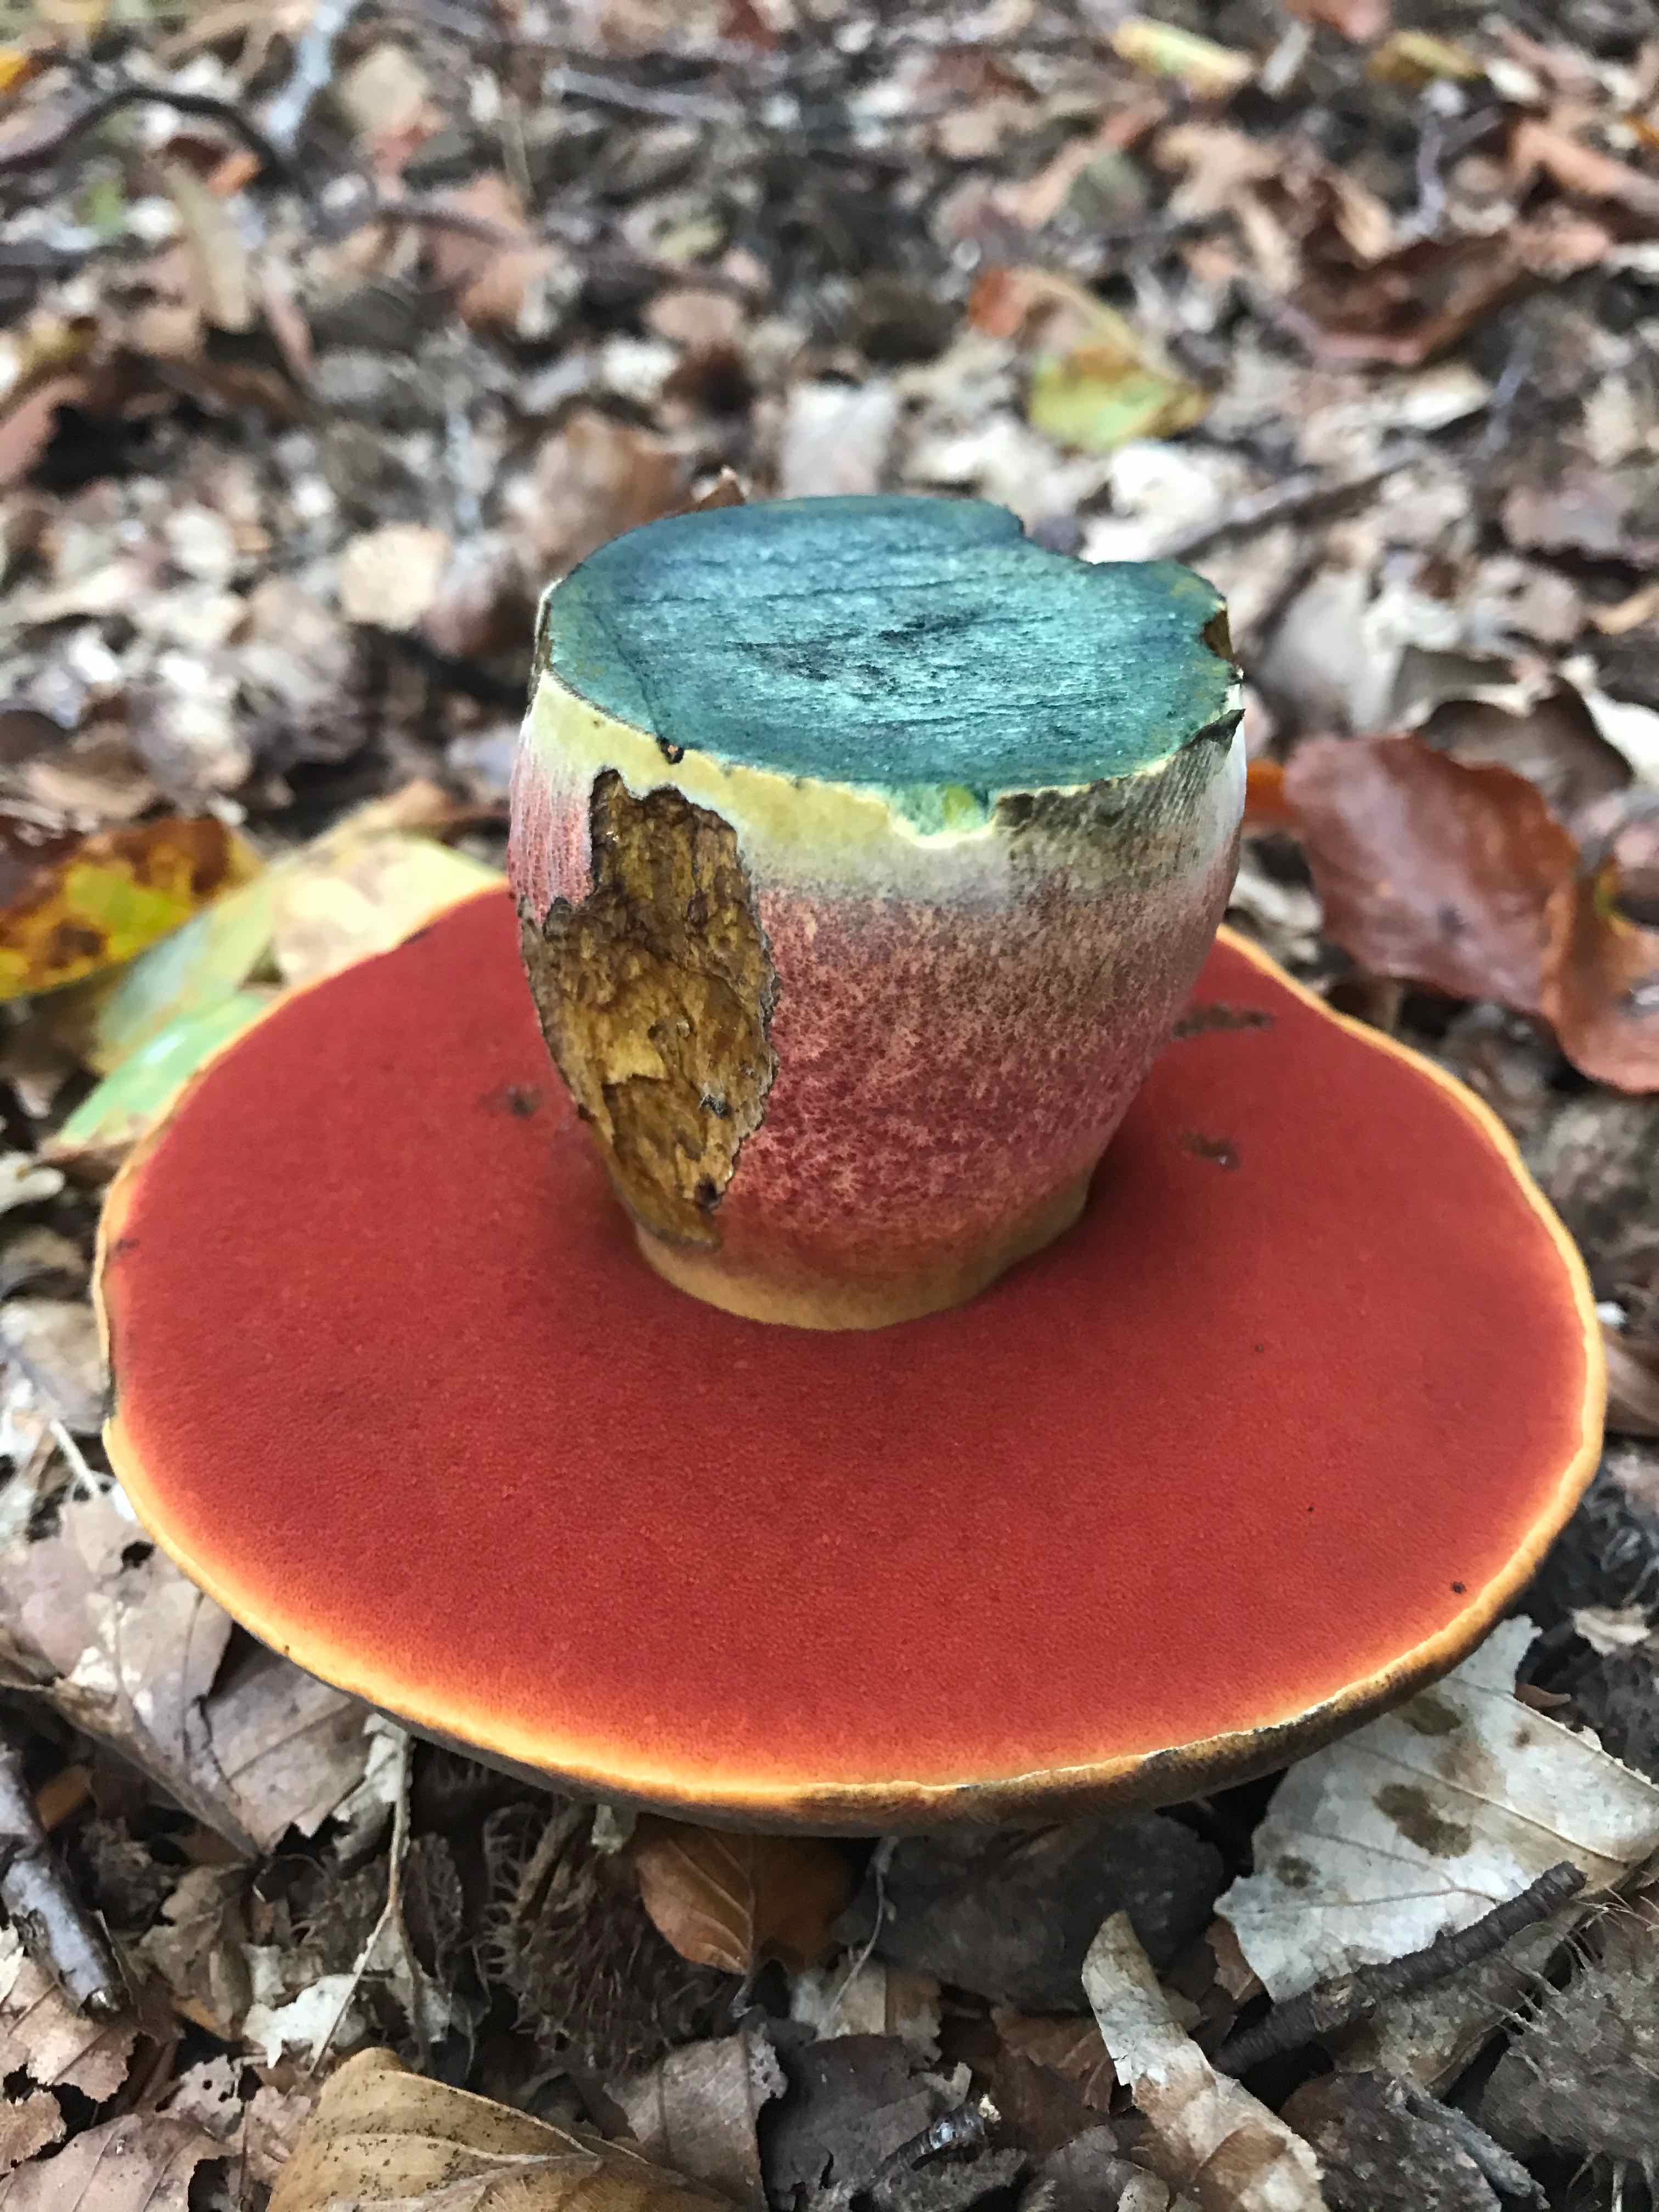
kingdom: Fungi
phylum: Basidiomycota
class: Agaricomycetes
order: Boletales
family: Boletaceae
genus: Neoboletus
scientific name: Neoboletus erythropus
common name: punktstokket indigorørhat
